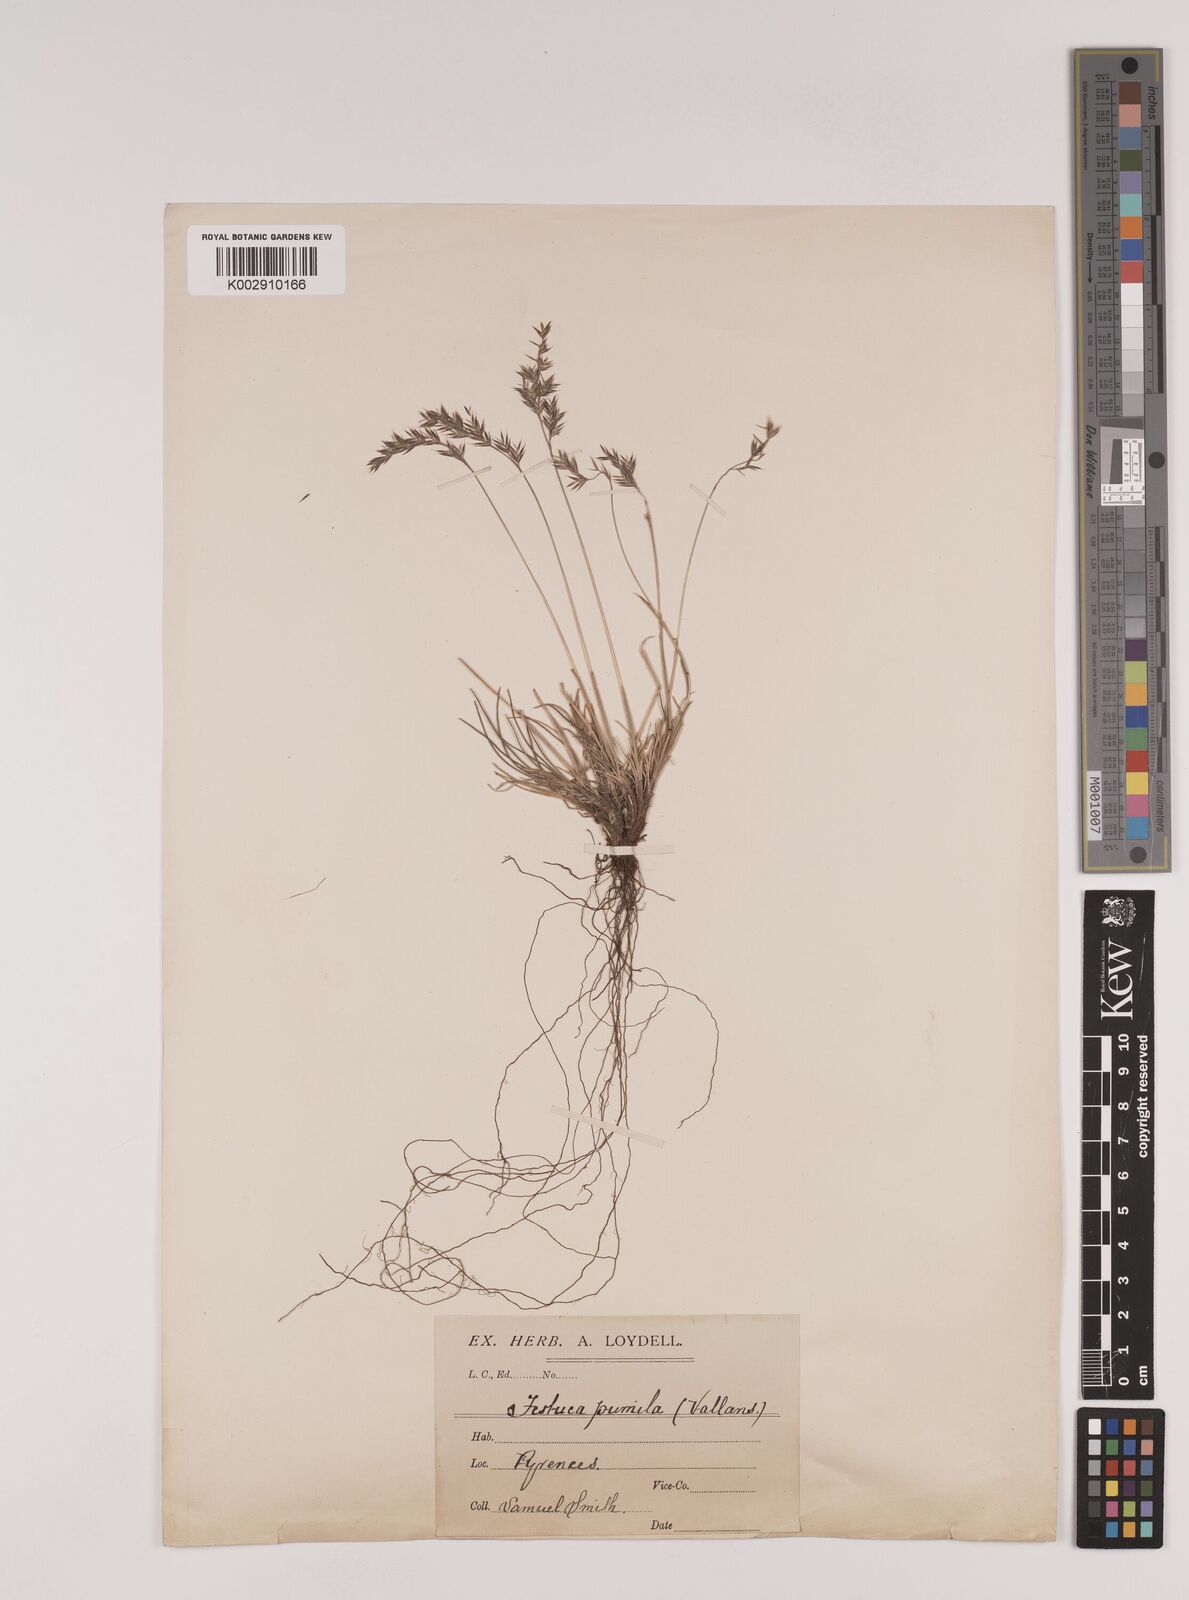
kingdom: Plantae
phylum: Tracheophyta
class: Liliopsida
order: Poales
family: Poaceae
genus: Festuca
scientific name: Festuca
